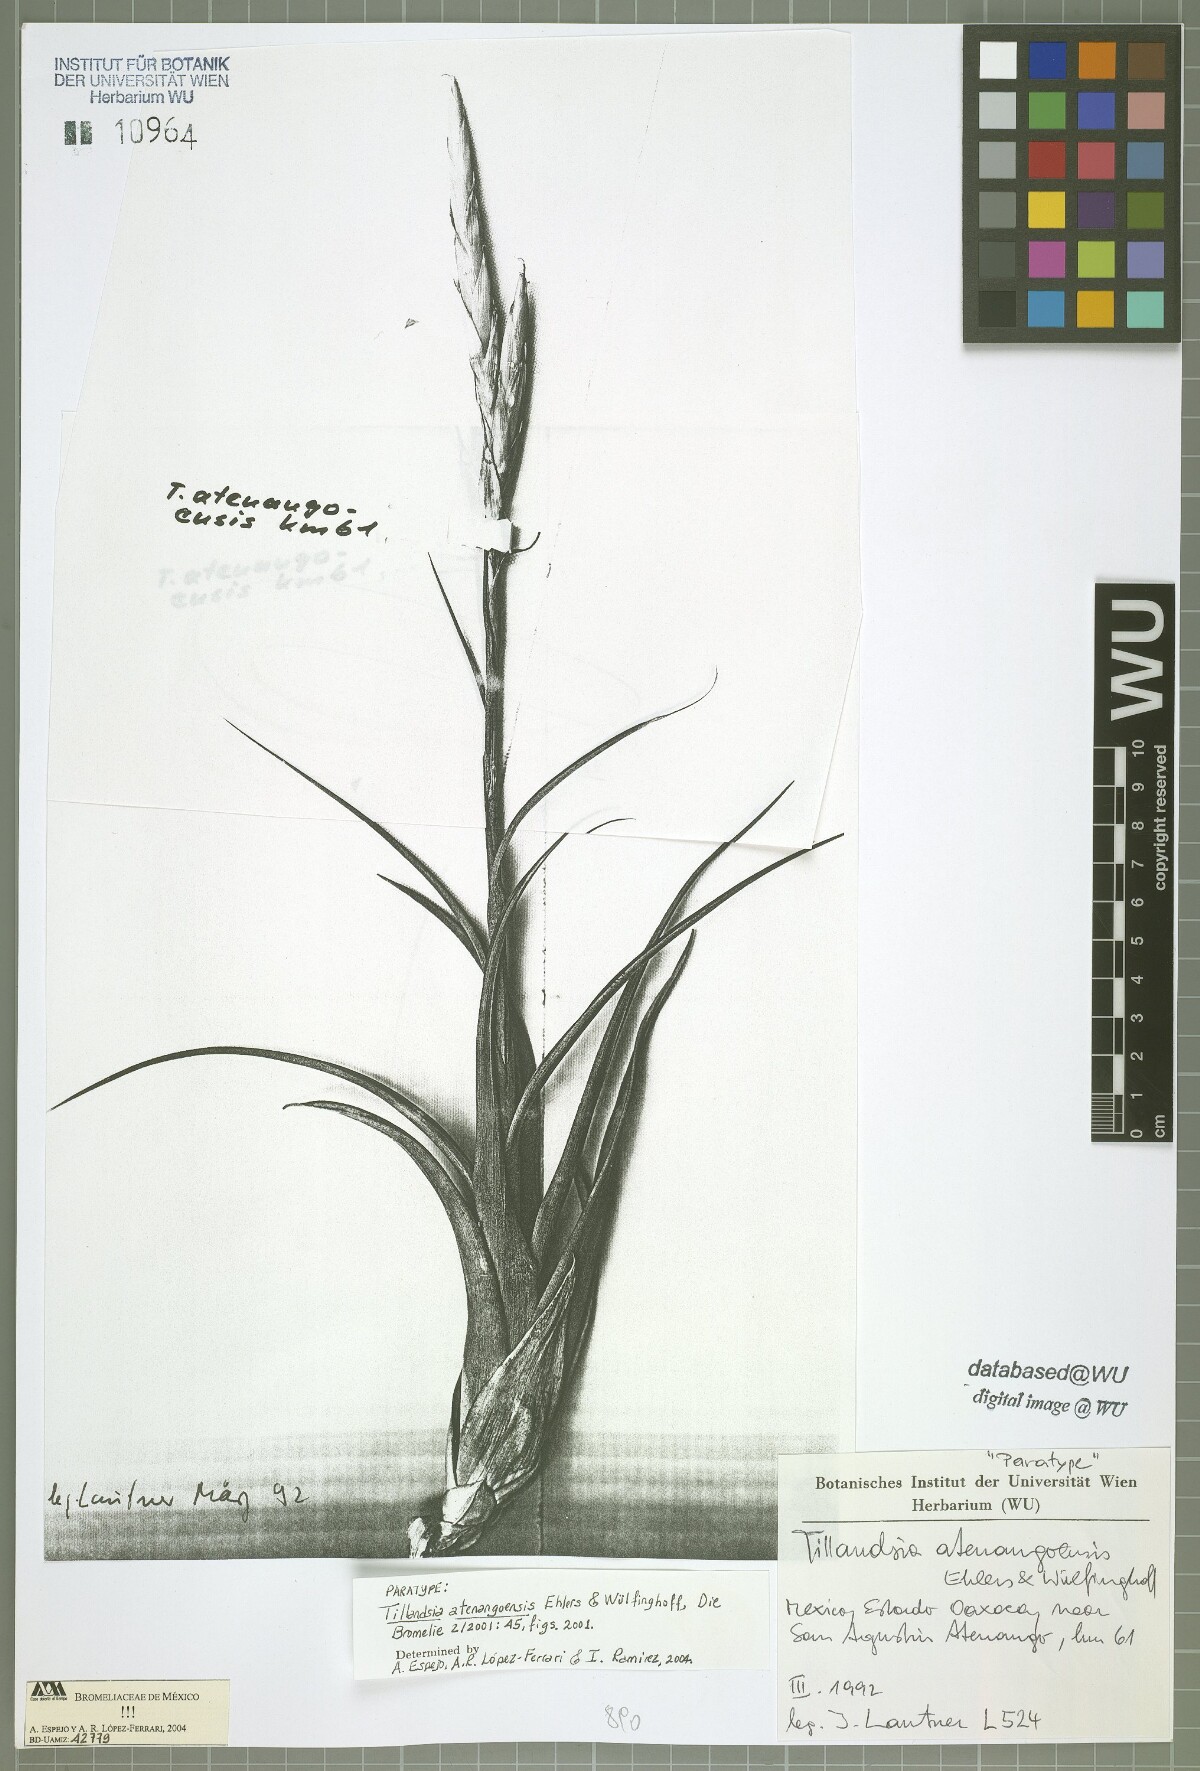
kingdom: Plantae
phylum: Tracheophyta
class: Liliopsida
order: Poales
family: Bromeliaceae
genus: Tillandsia
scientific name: Tillandsia atenangoensis
